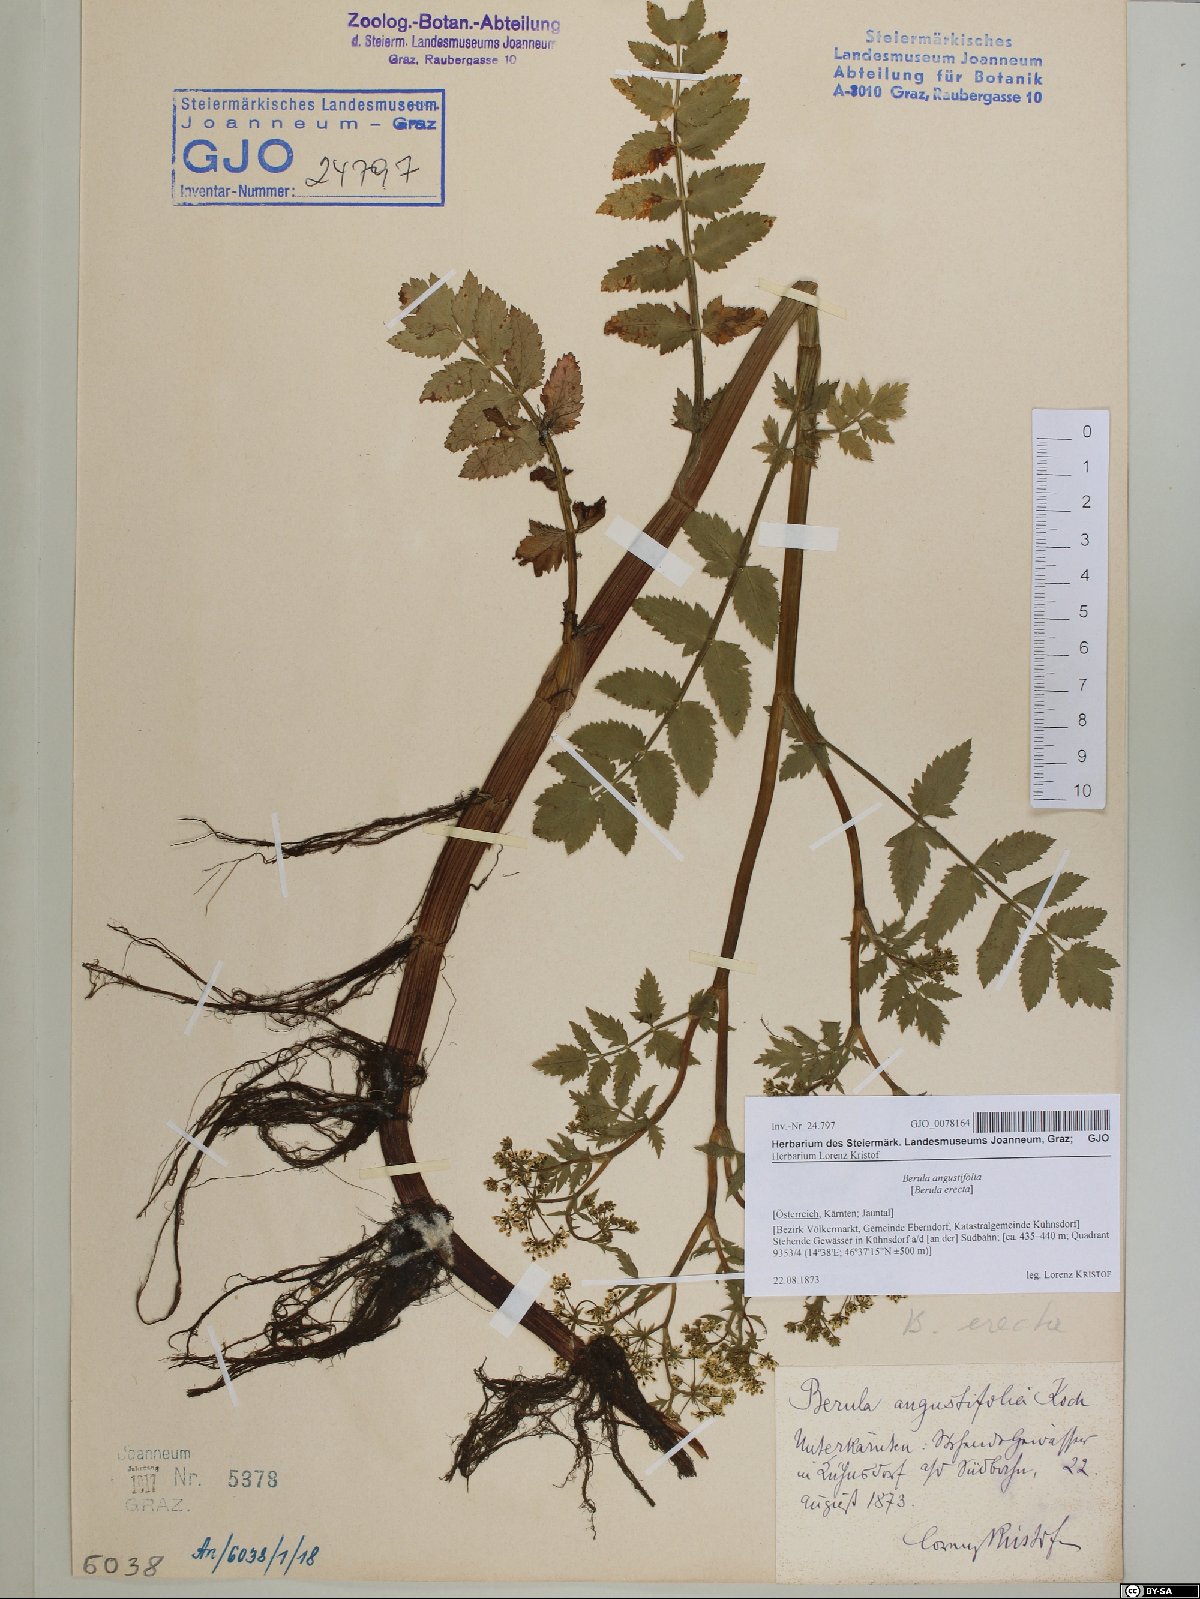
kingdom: Plantae
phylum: Tracheophyta
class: Magnoliopsida
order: Apiales
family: Apiaceae
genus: Berula
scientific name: Berula erecta
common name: Lesser water-parsnip
